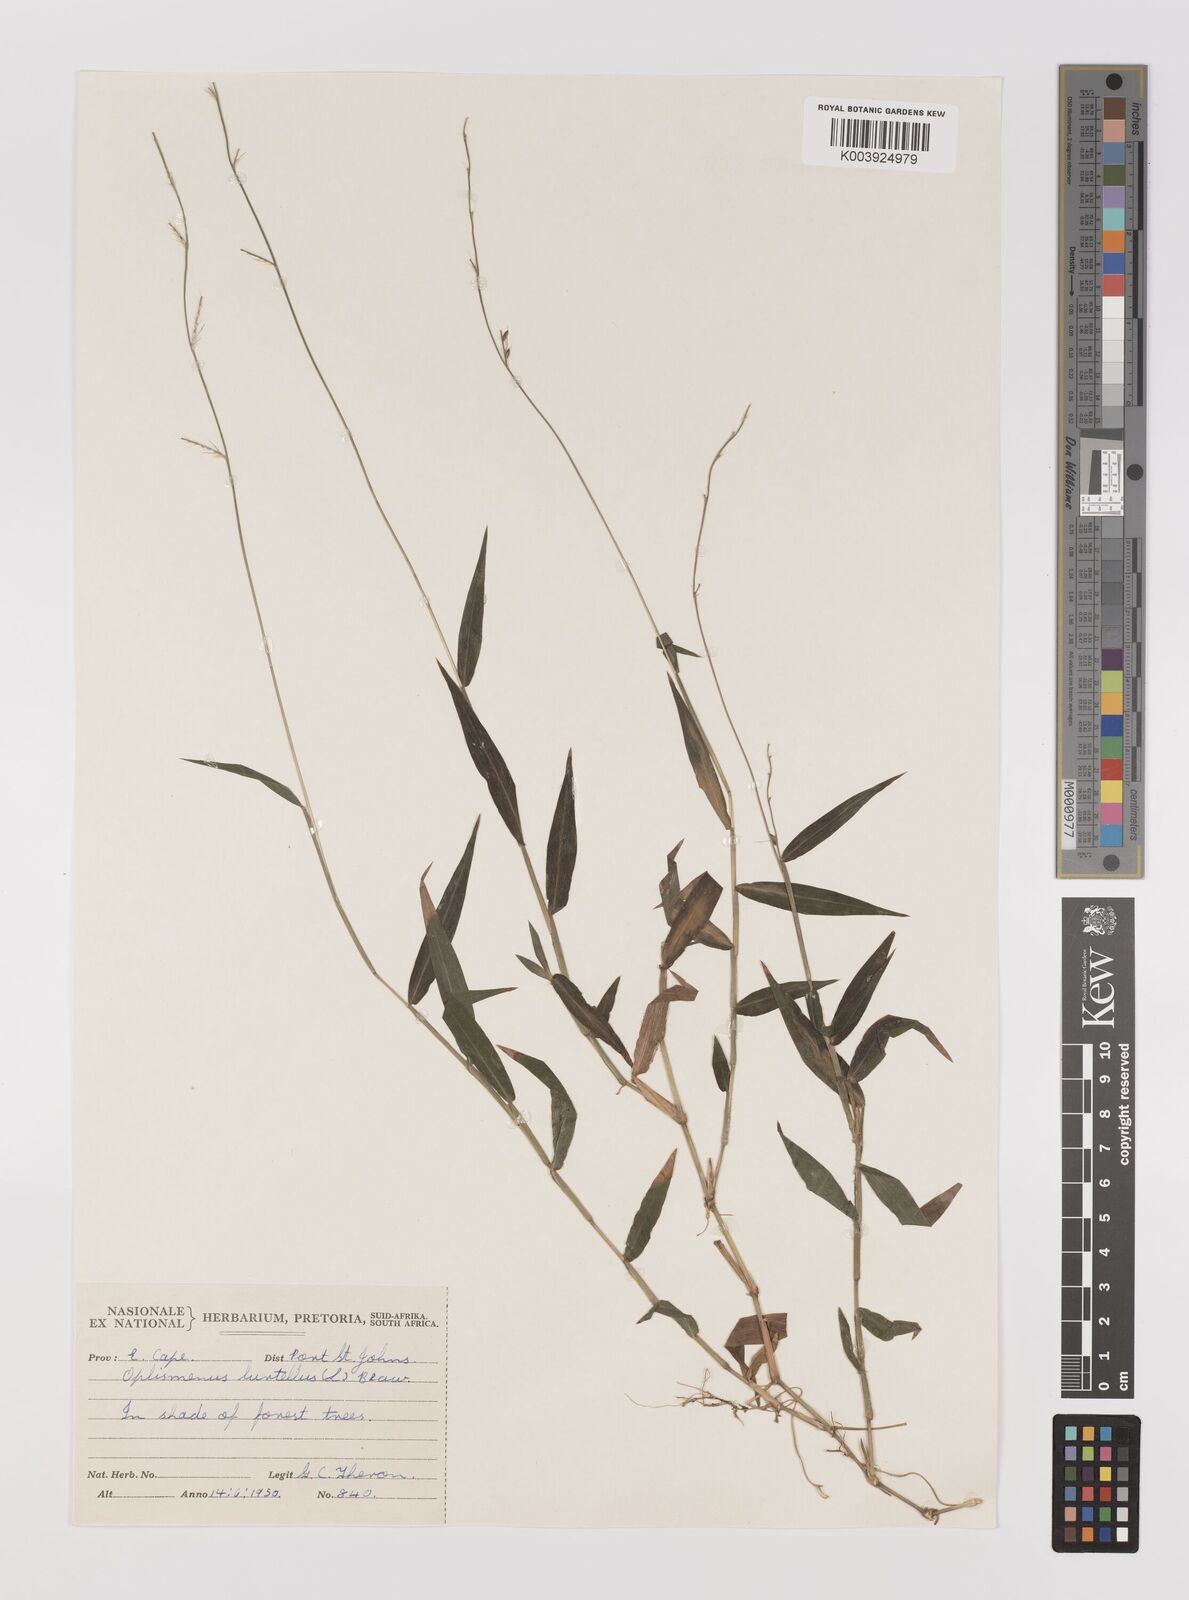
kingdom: Plantae
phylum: Tracheophyta
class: Liliopsida
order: Poales
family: Poaceae
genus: Oplismenus
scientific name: Oplismenus hirtellus
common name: Basketgrass
